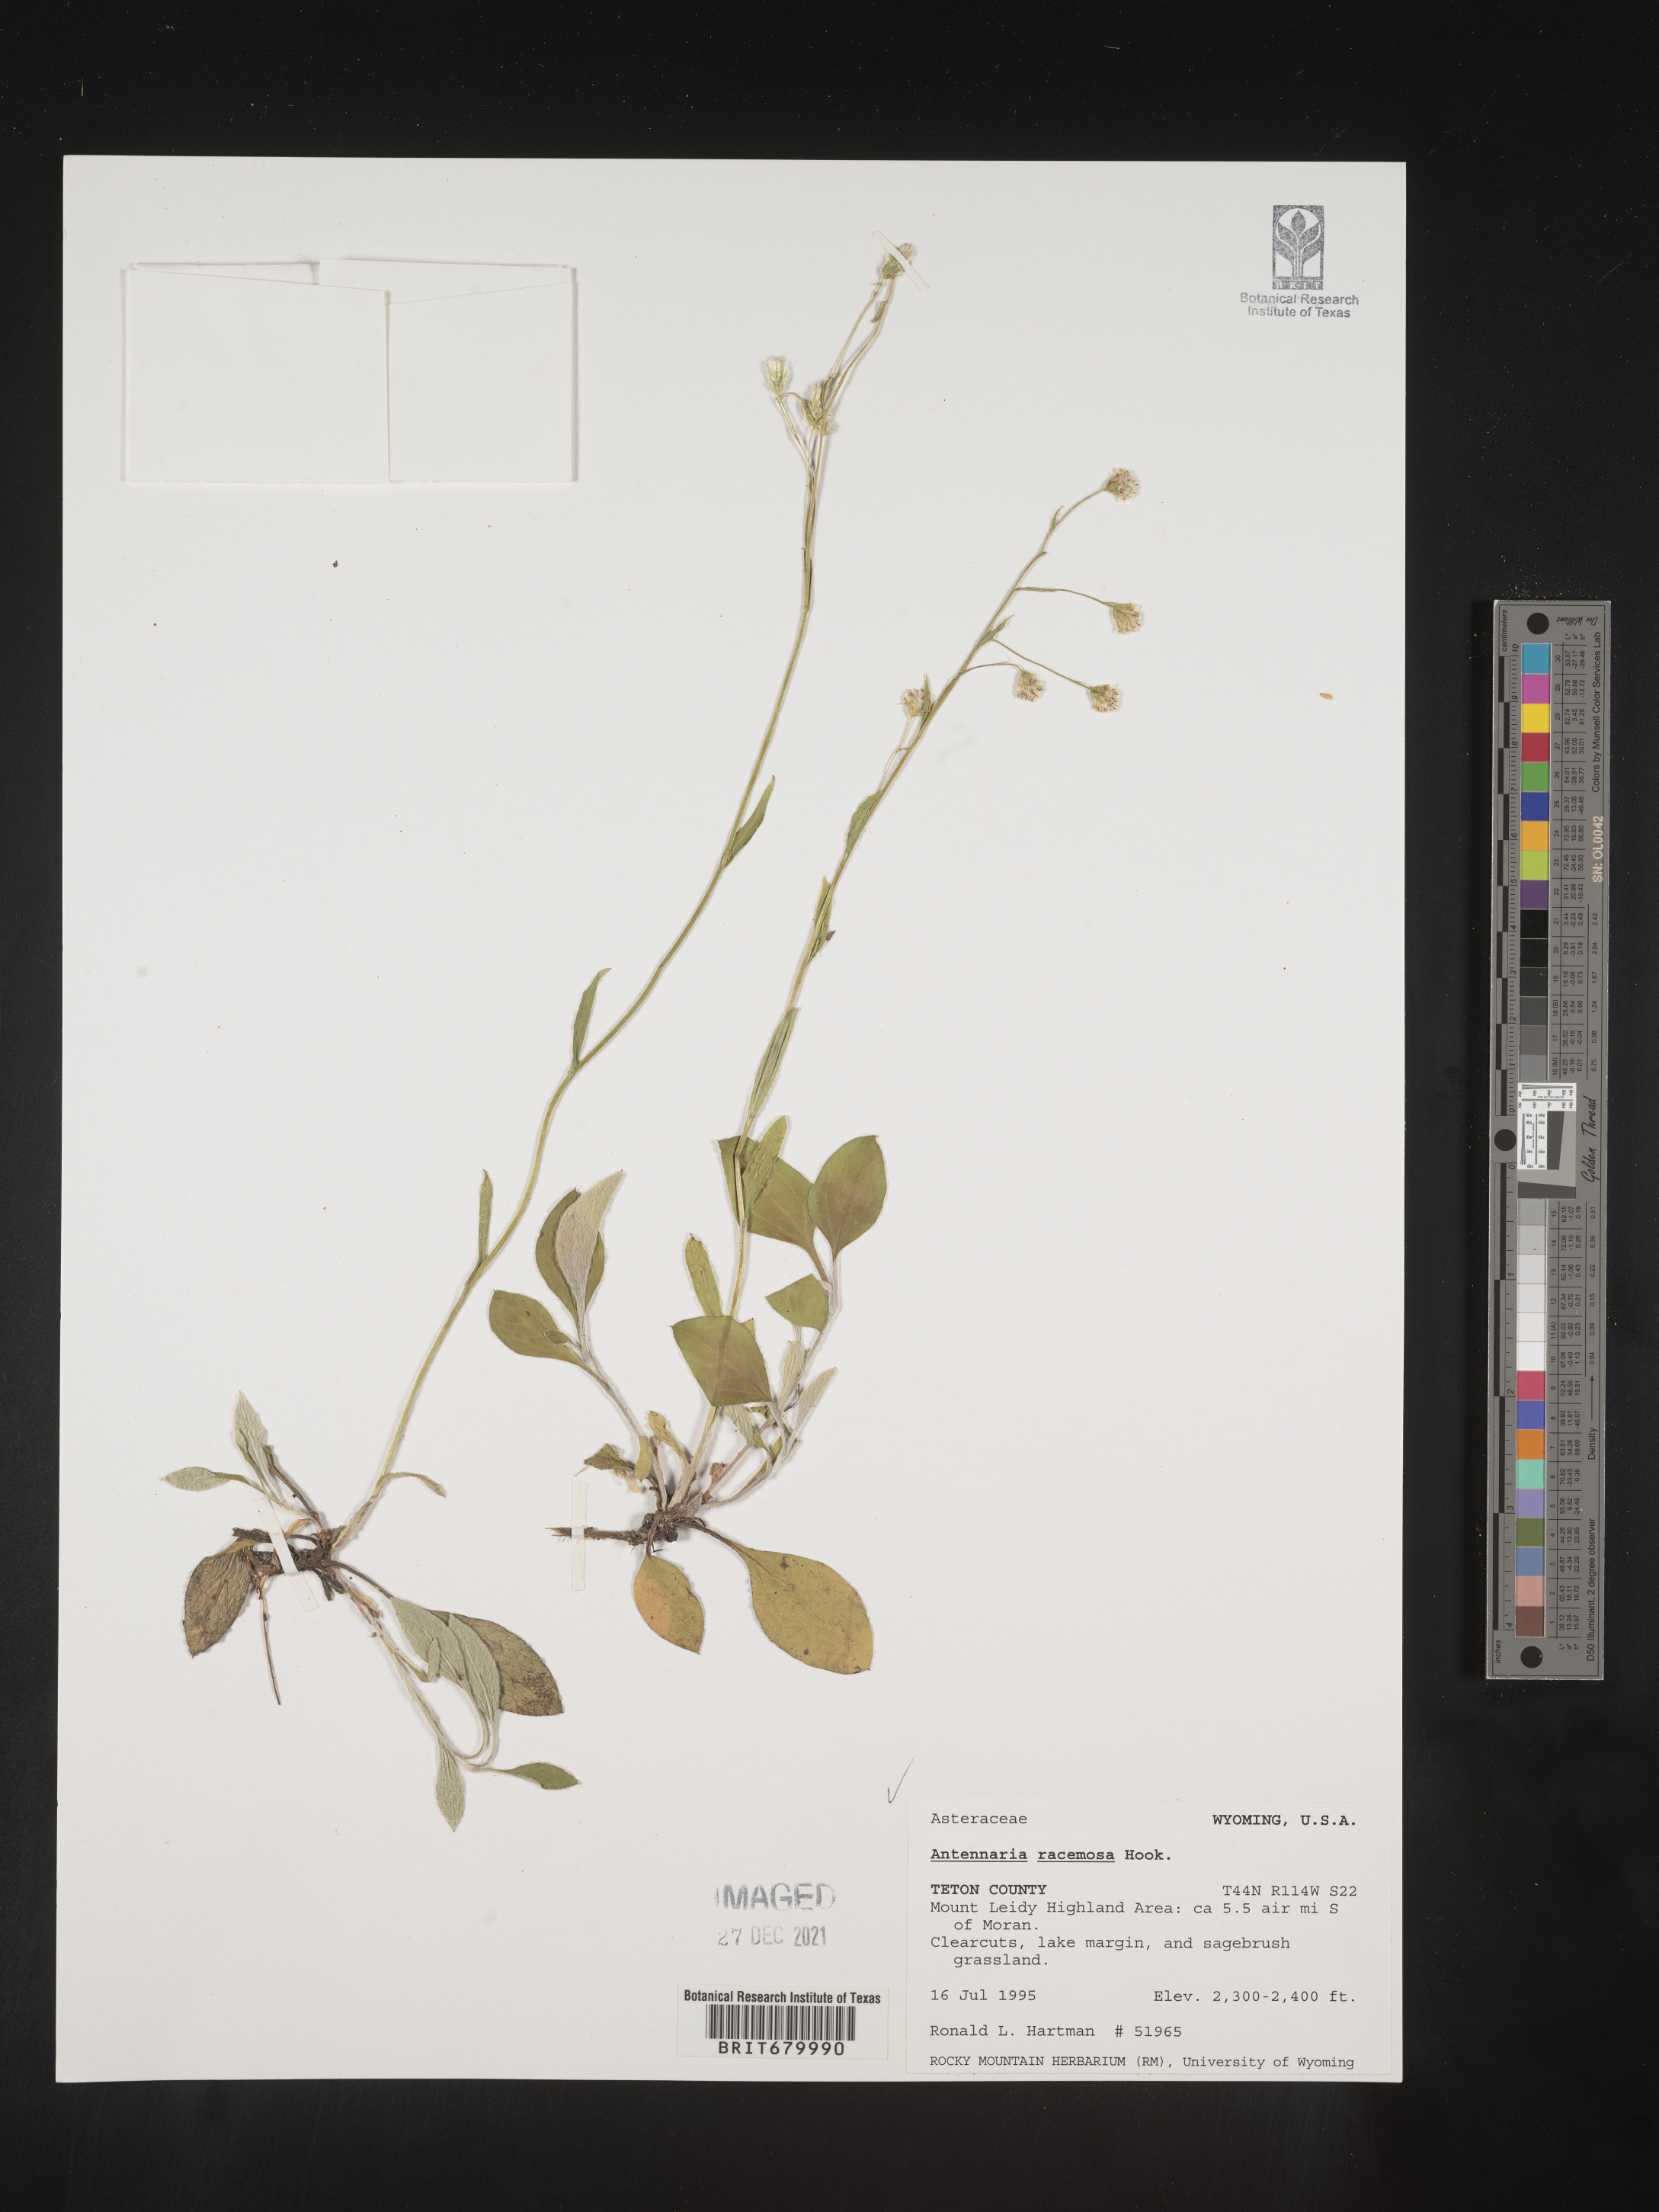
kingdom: Plantae
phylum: Tracheophyta
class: Magnoliopsida
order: Asterales
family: Asteraceae
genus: Antennaria
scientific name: Antennaria racemosa
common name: Racemose pussytoes
